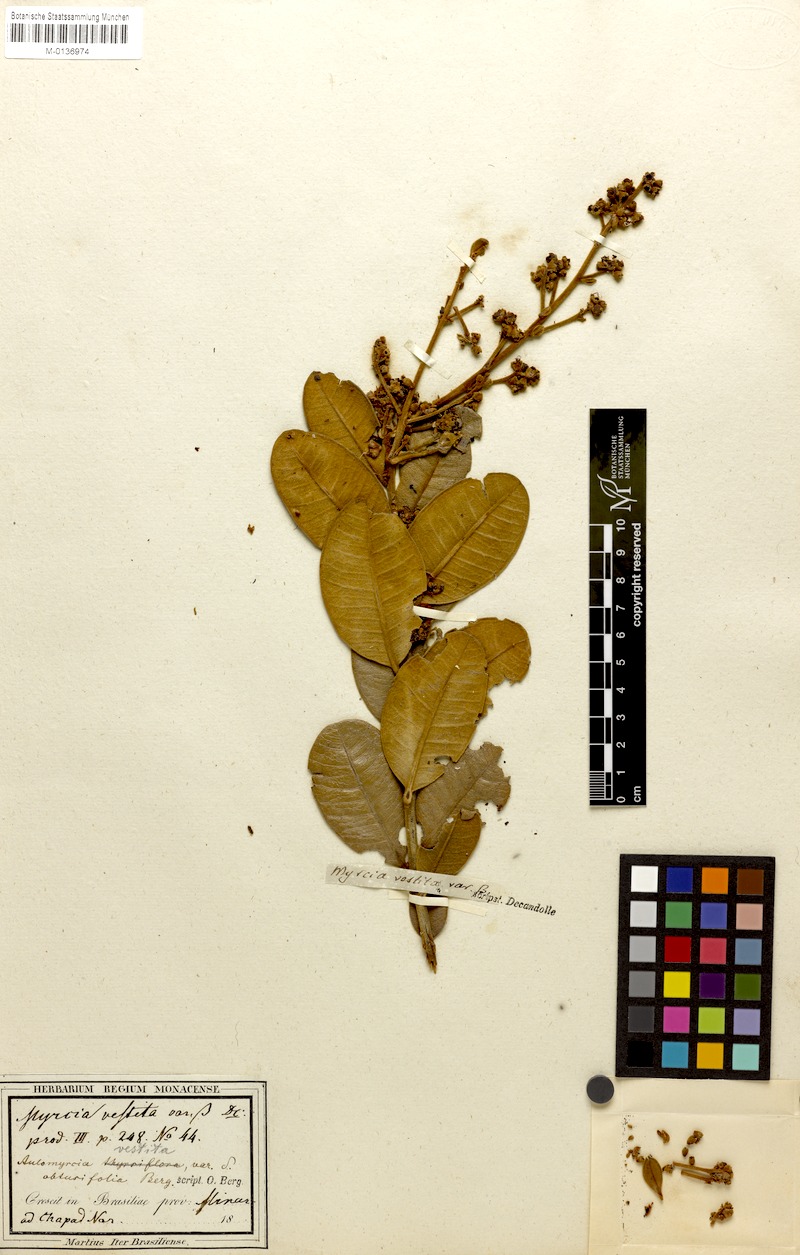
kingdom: Plantae
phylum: Tracheophyta
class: Magnoliopsida
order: Myrtales
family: Myrtaceae
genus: Myrcia
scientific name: Myrcia vestita
